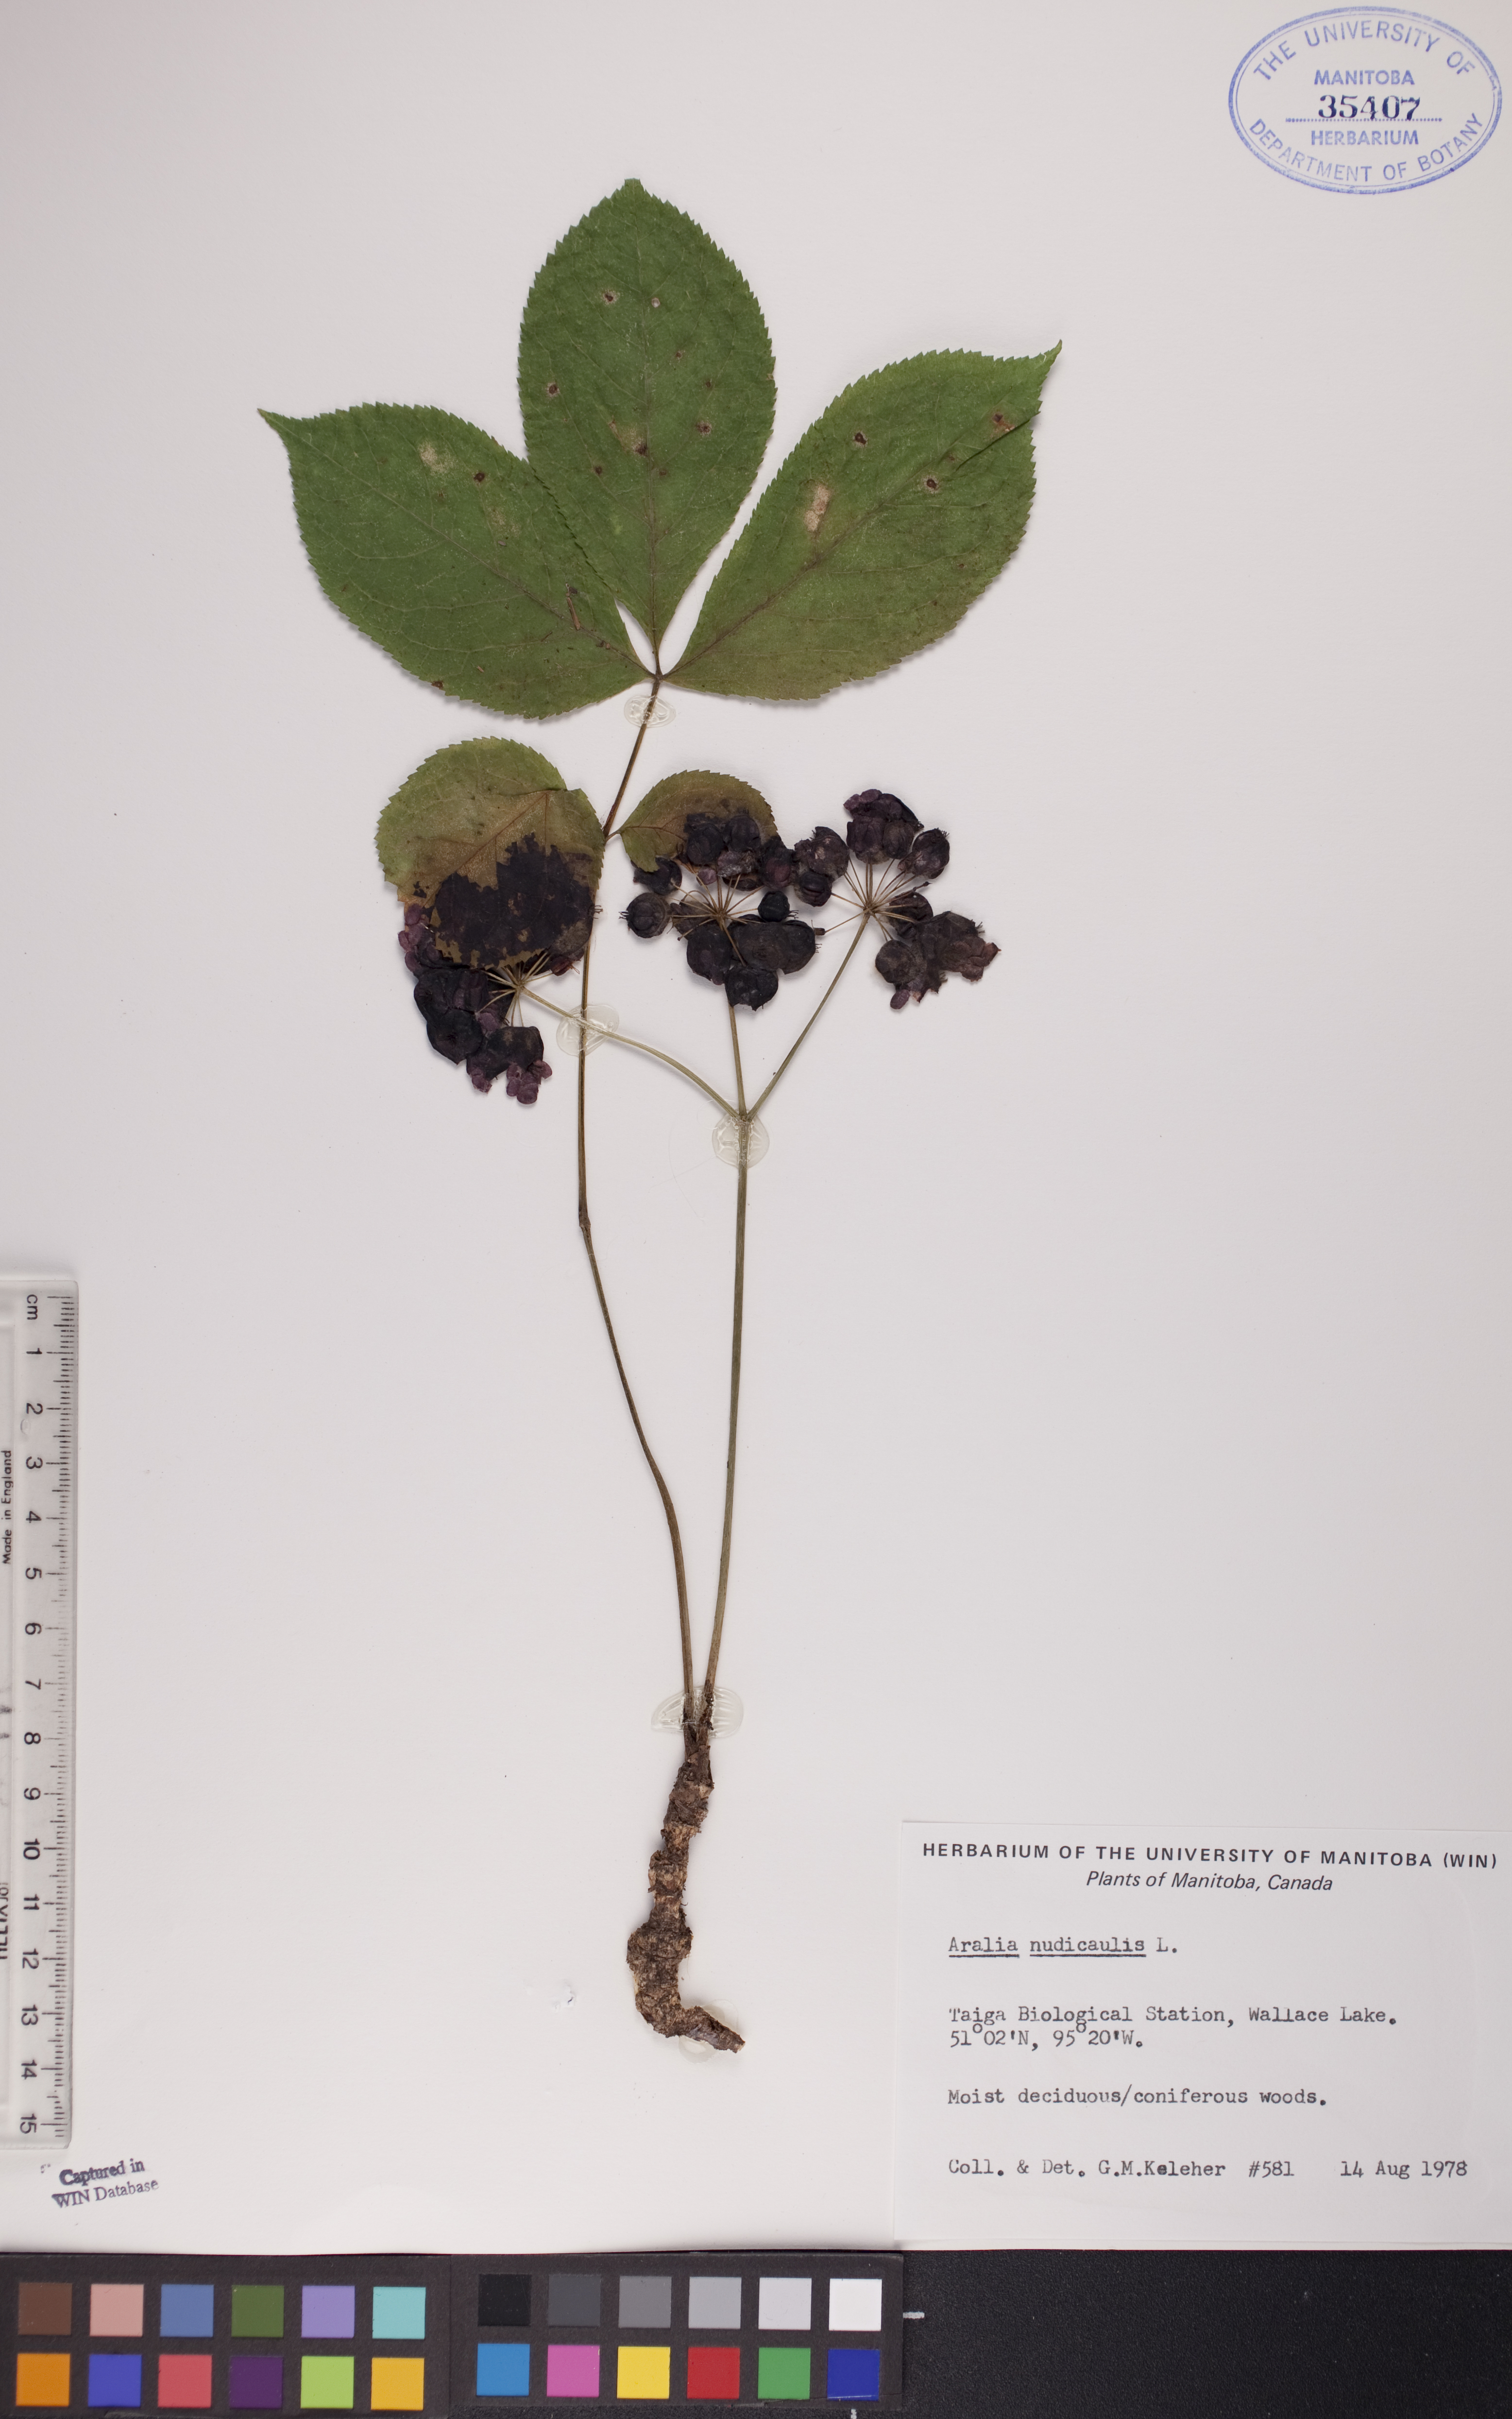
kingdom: Plantae
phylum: Tracheophyta
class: Magnoliopsida
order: Apiales
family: Araliaceae
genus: Aralia
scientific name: Aralia nudicaulis
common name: Wild sarsaparilla
